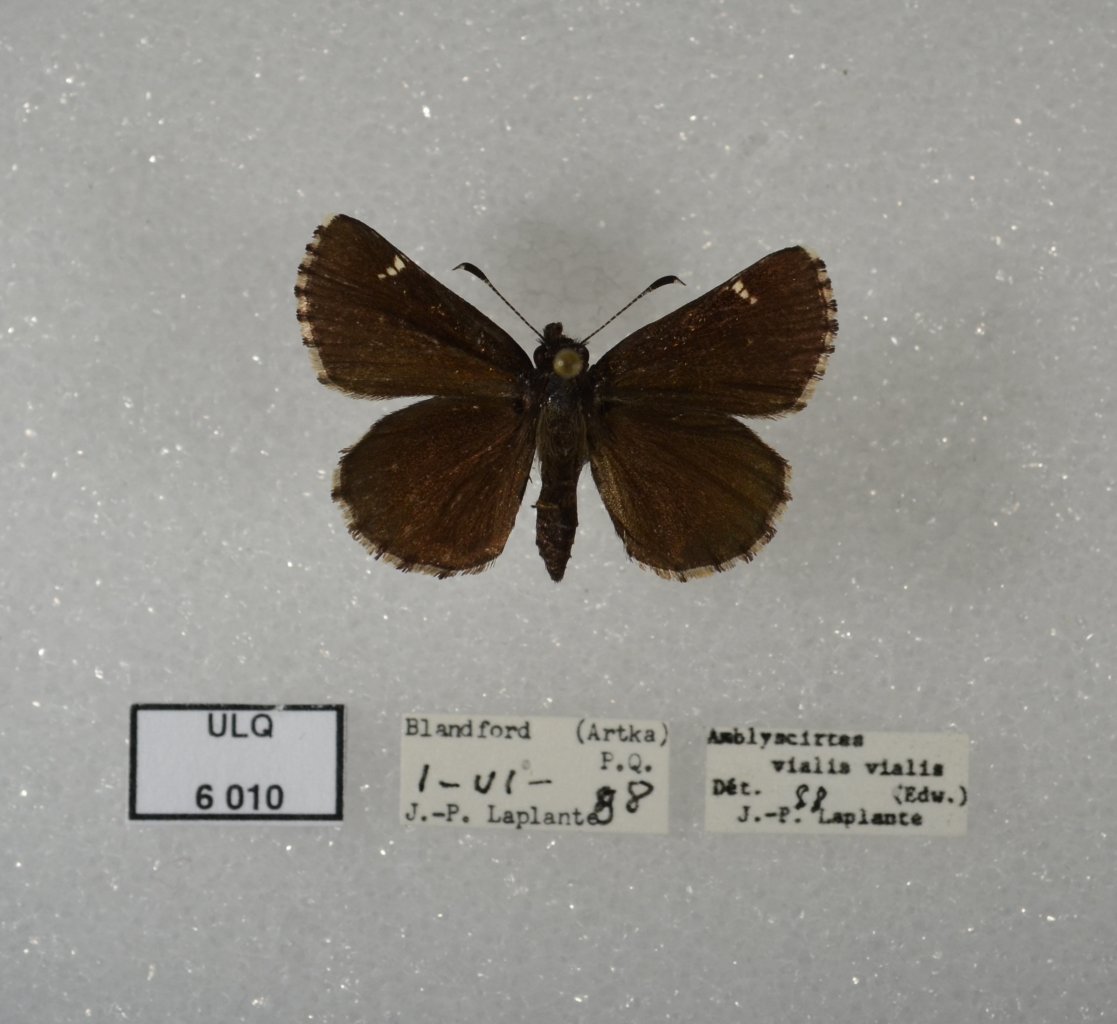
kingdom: Animalia
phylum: Arthropoda
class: Insecta
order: Lepidoptera
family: Hesperiidae
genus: Mastor
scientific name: Mastor vialis
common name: Common Roadside-Skipper
